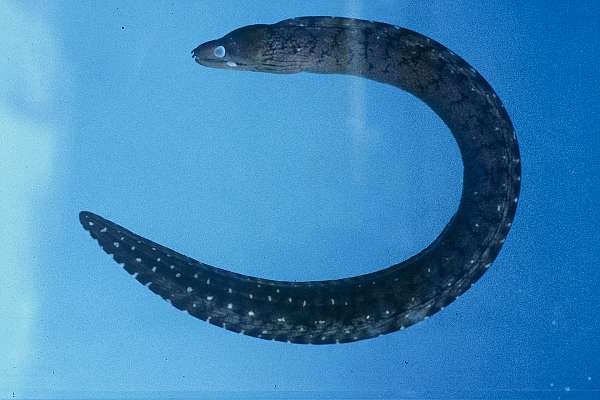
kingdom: Animalia
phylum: Chordata
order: Anguilliformes
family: Muraenidae
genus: Gymnothorax
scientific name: Gymnothorax chilospilus
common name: Lipspot moray
